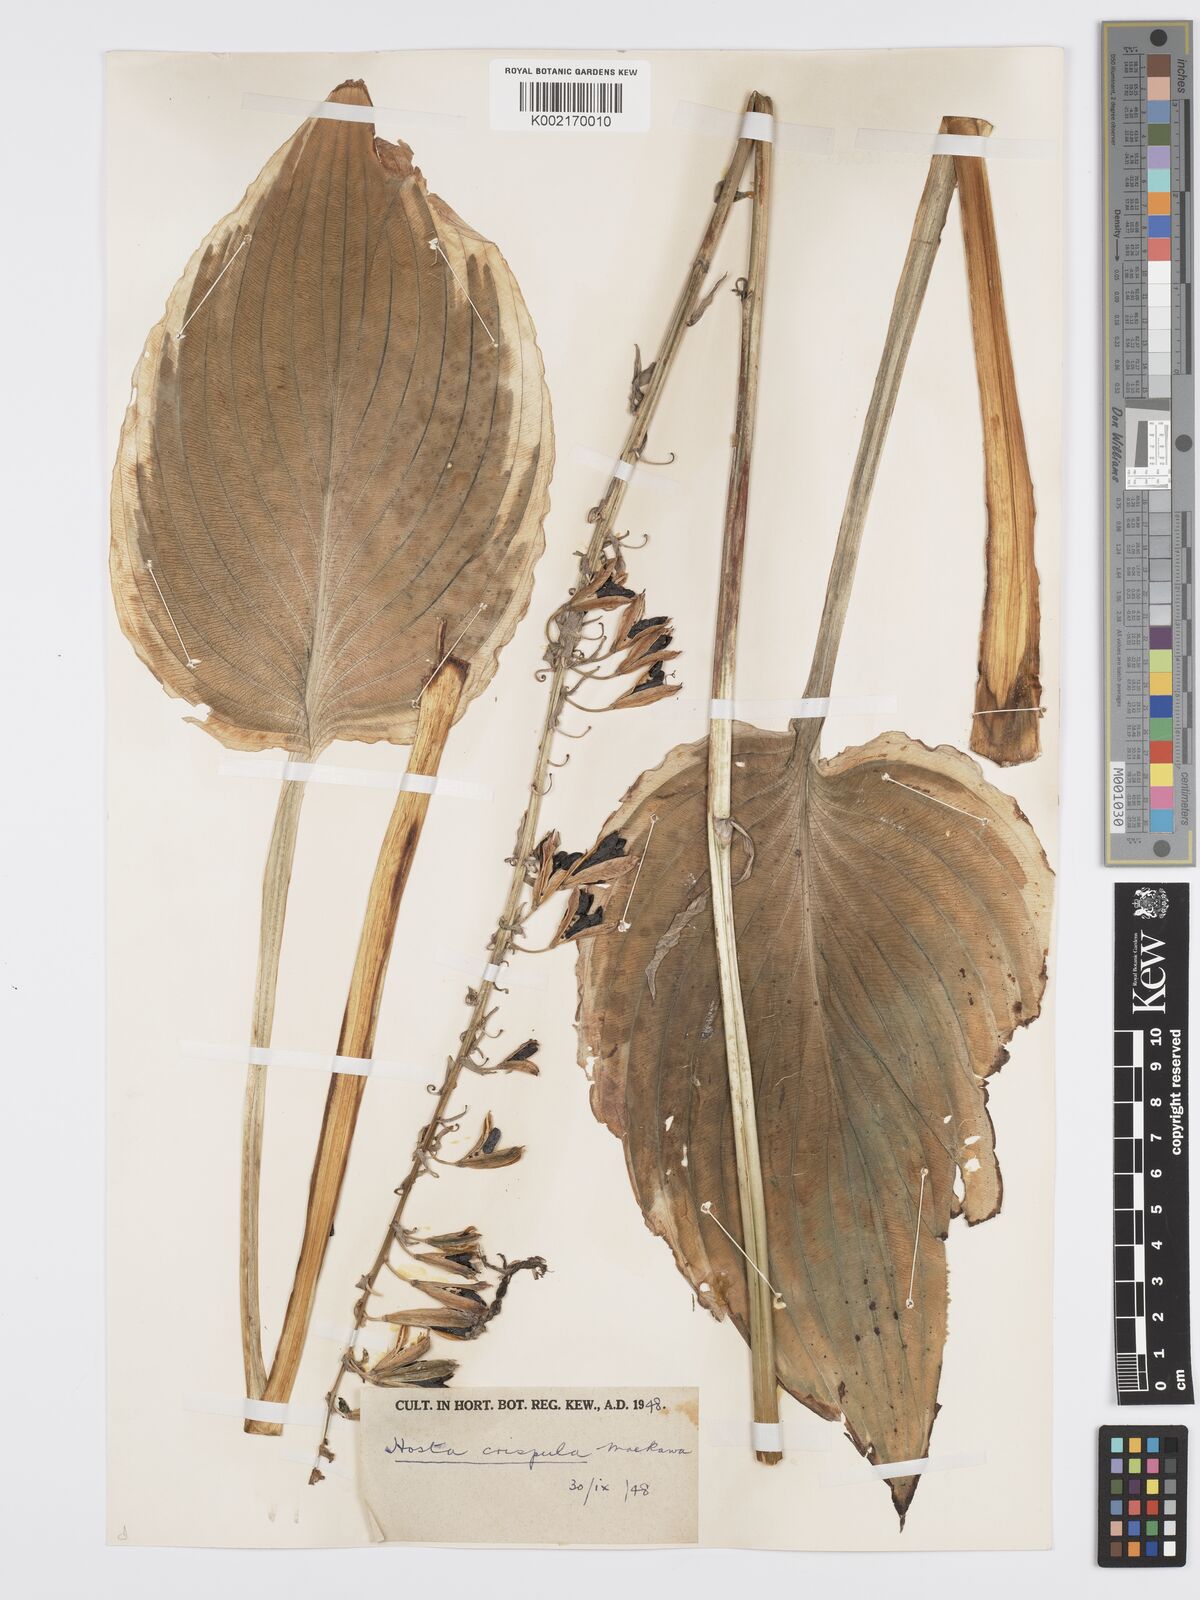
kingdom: Plantae
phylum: Tracheophyta
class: Liliopsida
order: Asparagales
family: Asparagaceae
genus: Hosta
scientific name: Hosta sieboldiana
